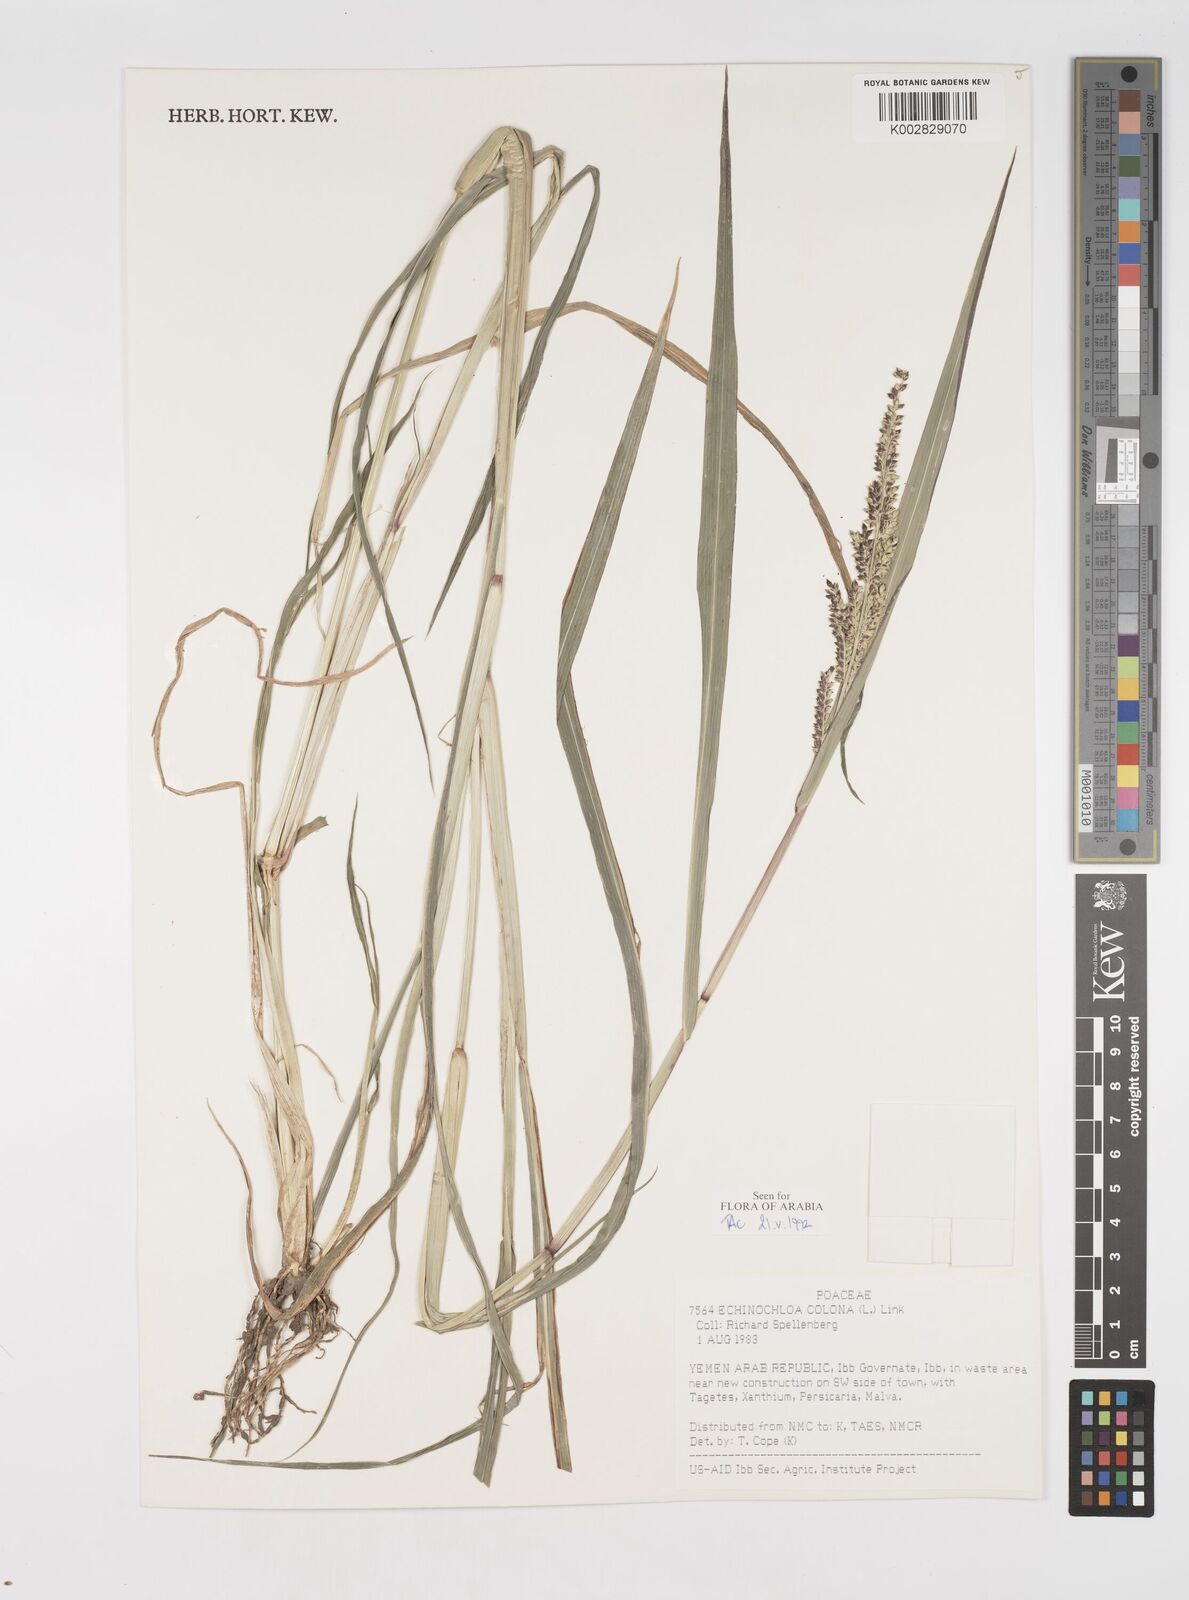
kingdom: Plantae
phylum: Tracheophyta
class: Liliopsida
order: Poales
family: Poaceae
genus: Echinochloa
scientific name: Echinochloa colonum
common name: Jungle rice
